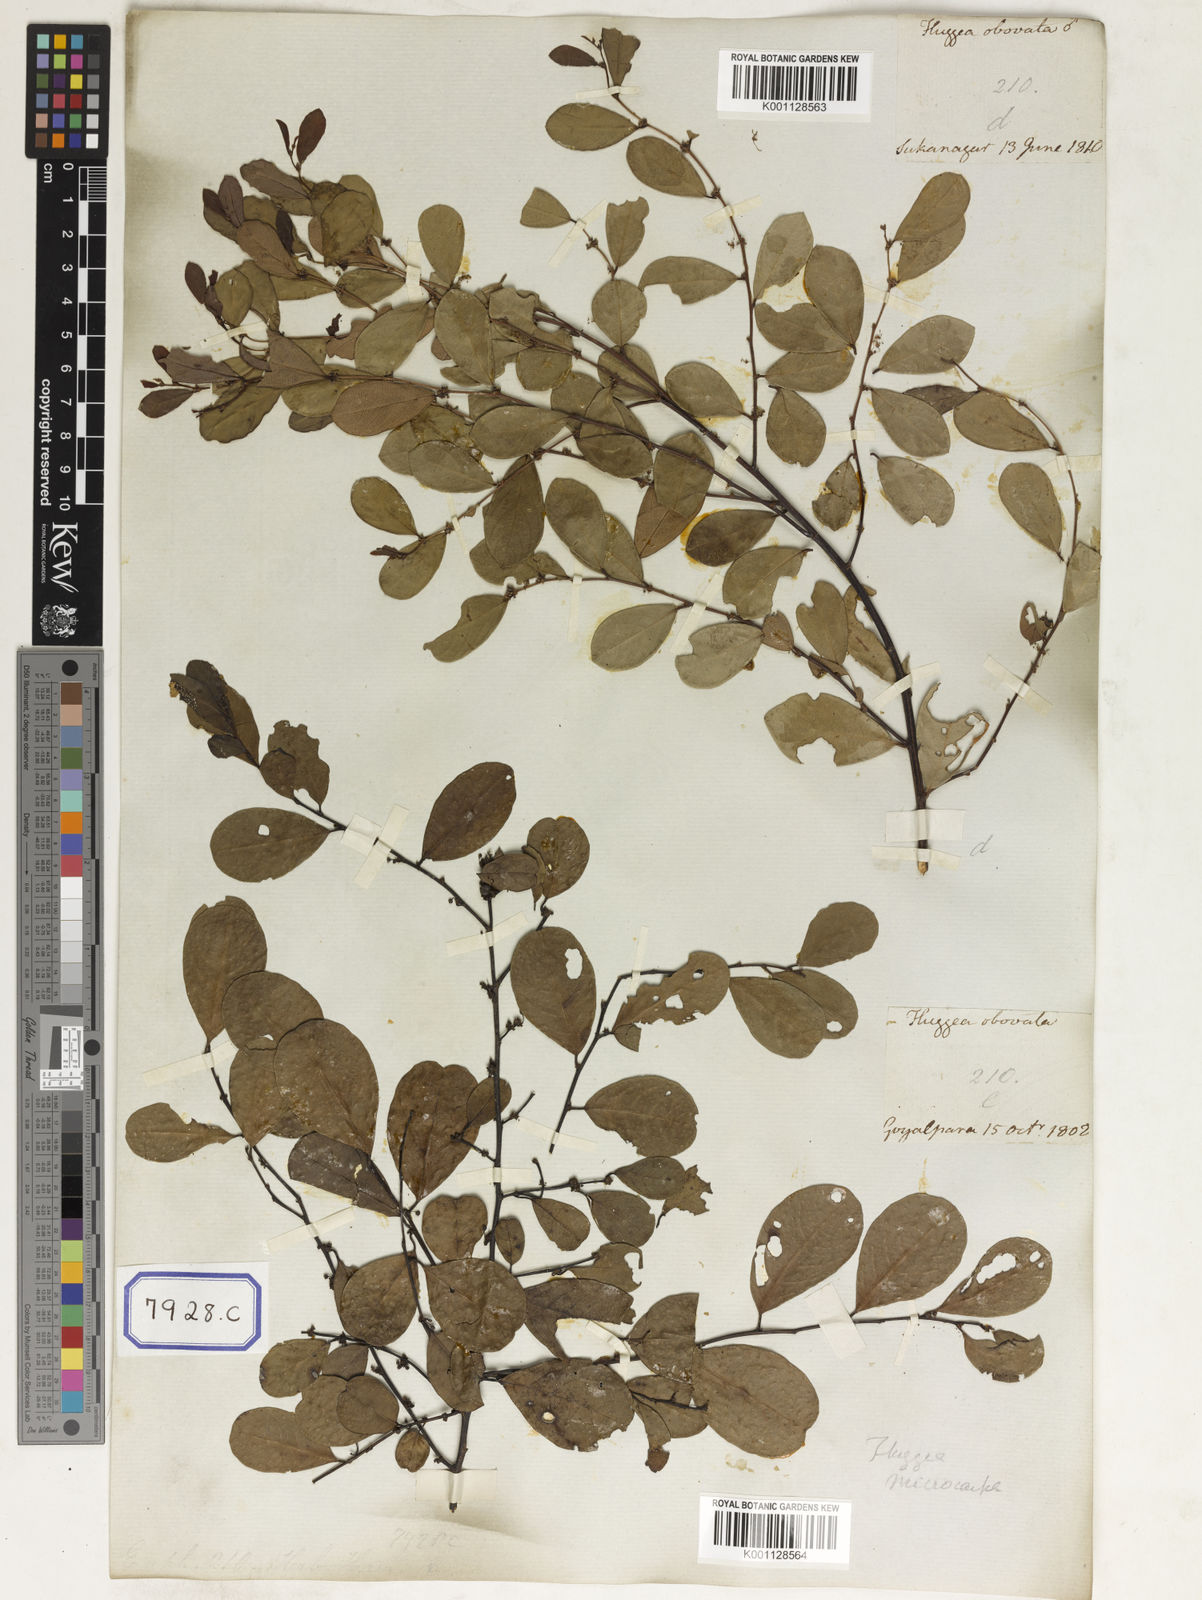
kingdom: Plantae
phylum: Tracheophyta
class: Magnoliopsida
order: Malpighiales
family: Euphorbiaceae
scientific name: Euphorbiaceae
